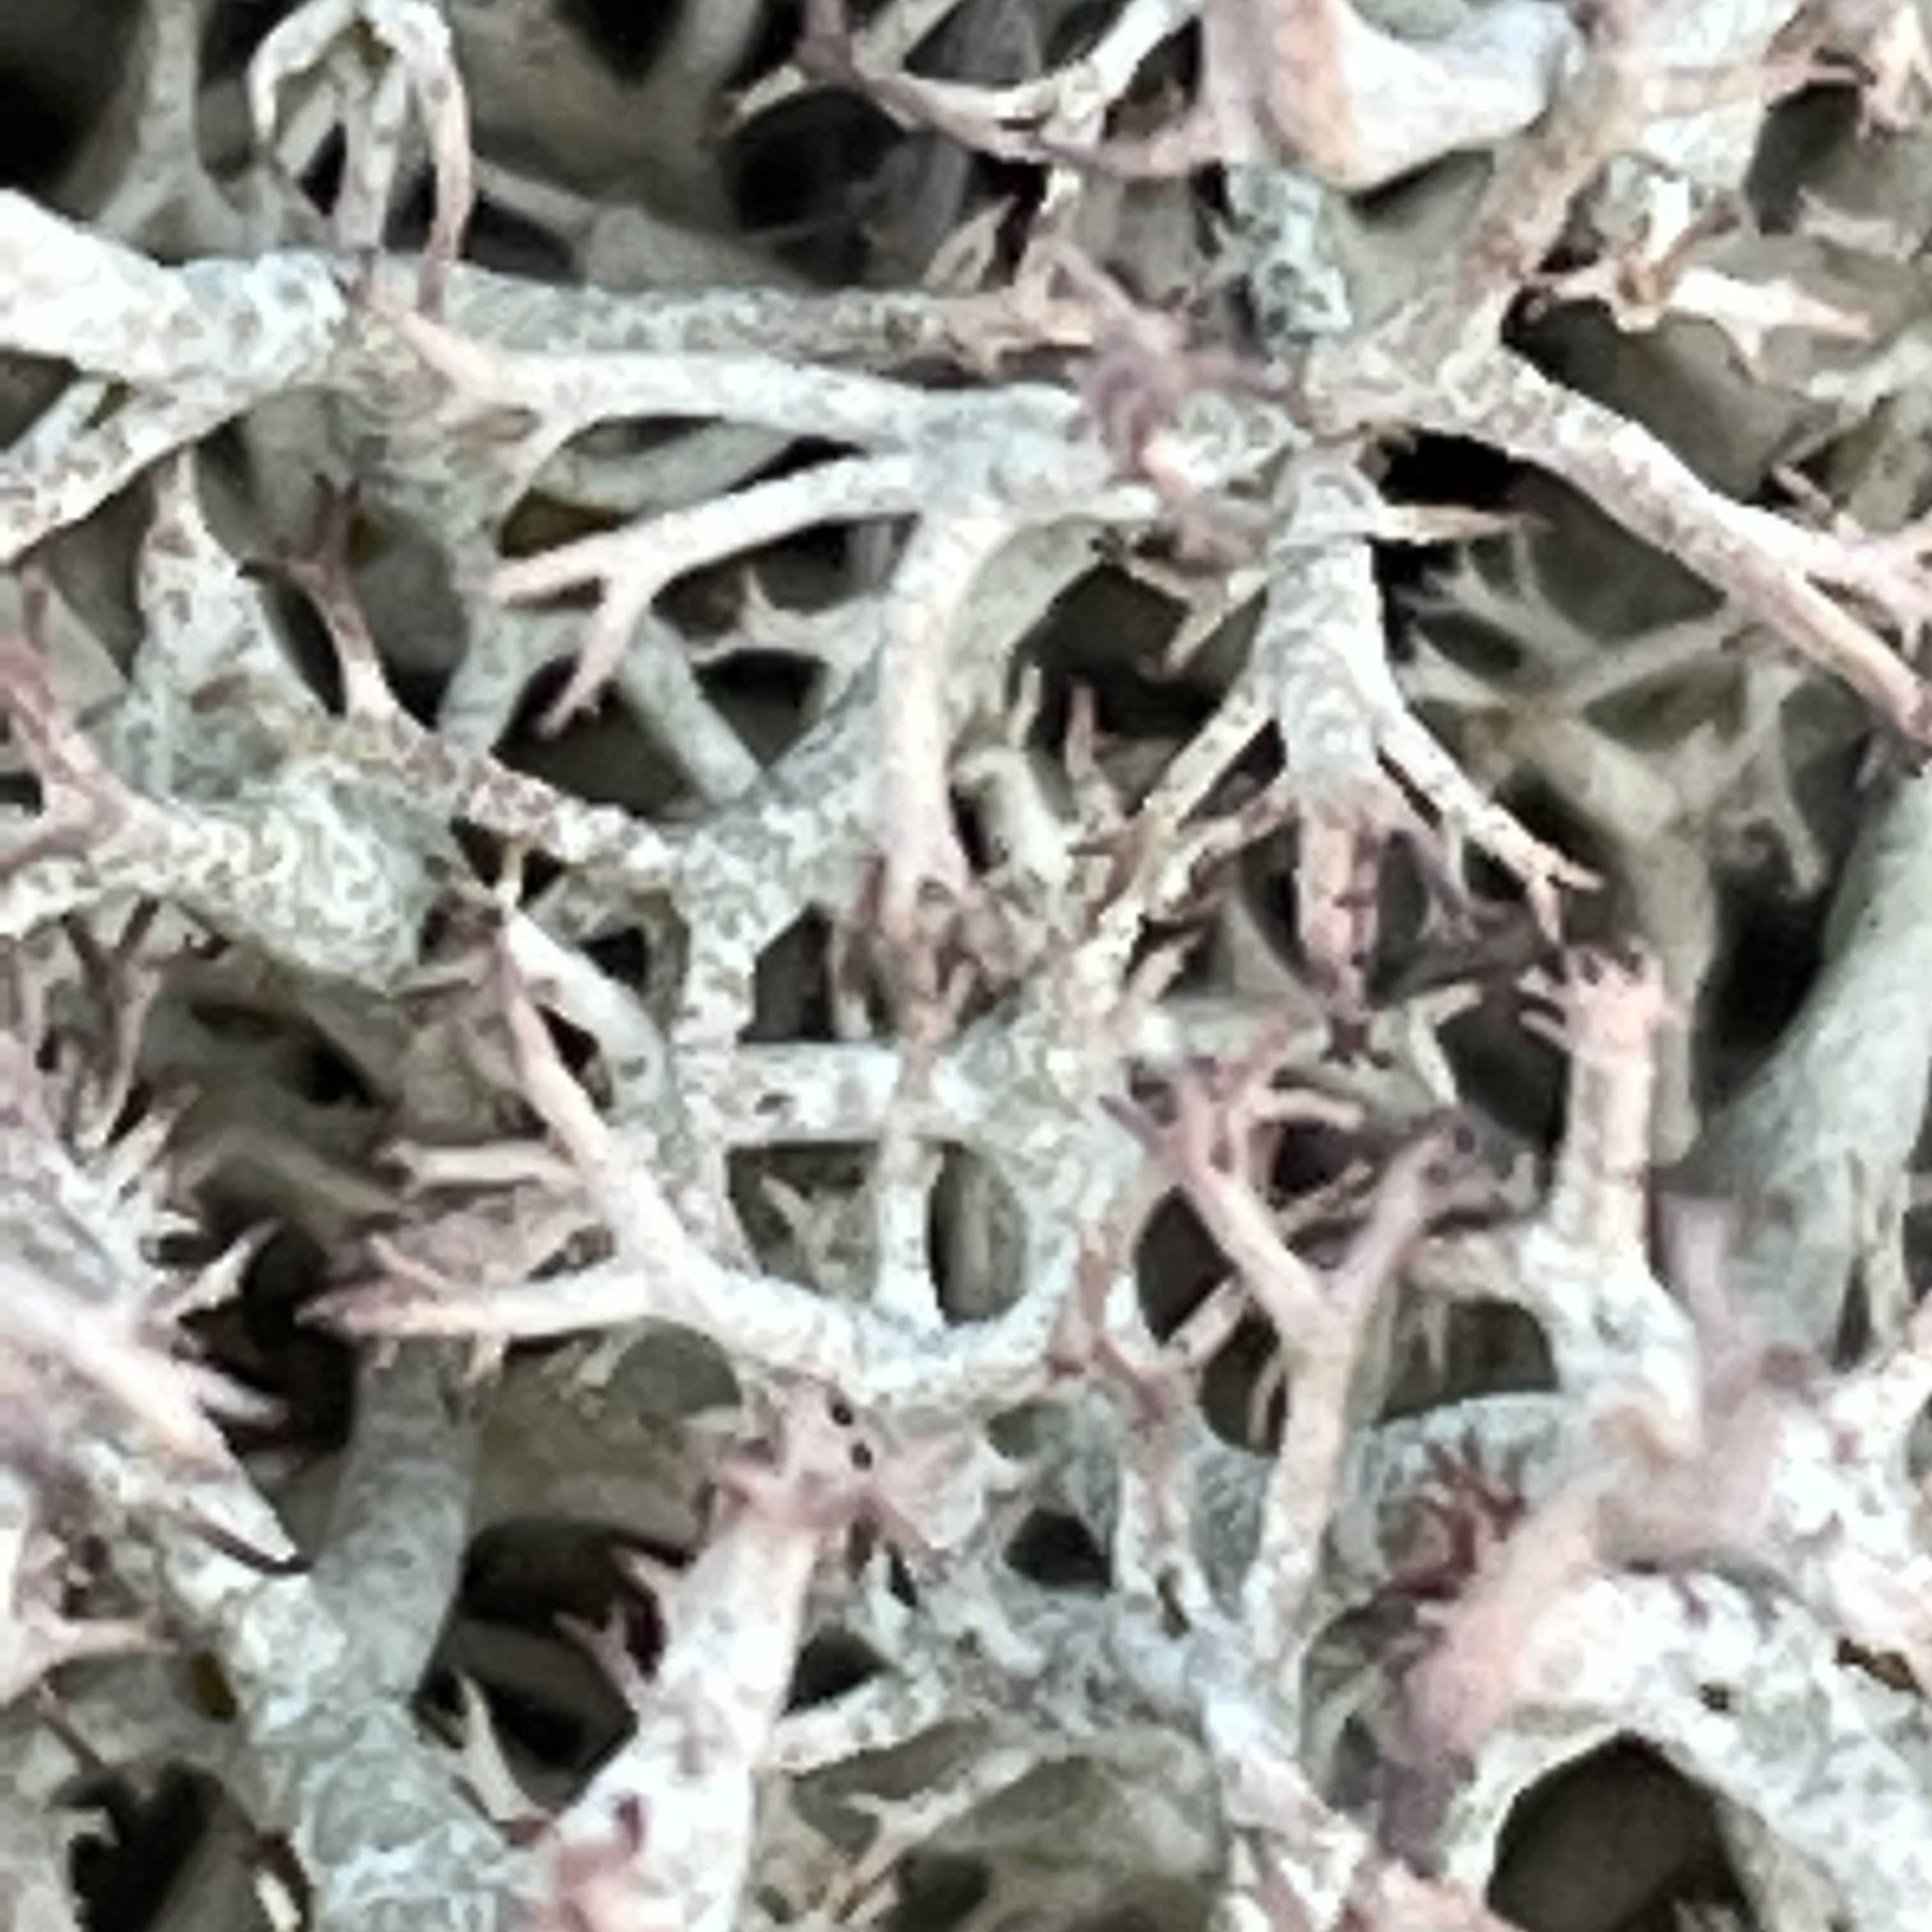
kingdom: Fungi
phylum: Ascomycota
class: Lecanoromycetes
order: Lecanorales
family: Cladoniaceae
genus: Cladonia
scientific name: Cladonia rangiformis
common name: spættet bægerlav
